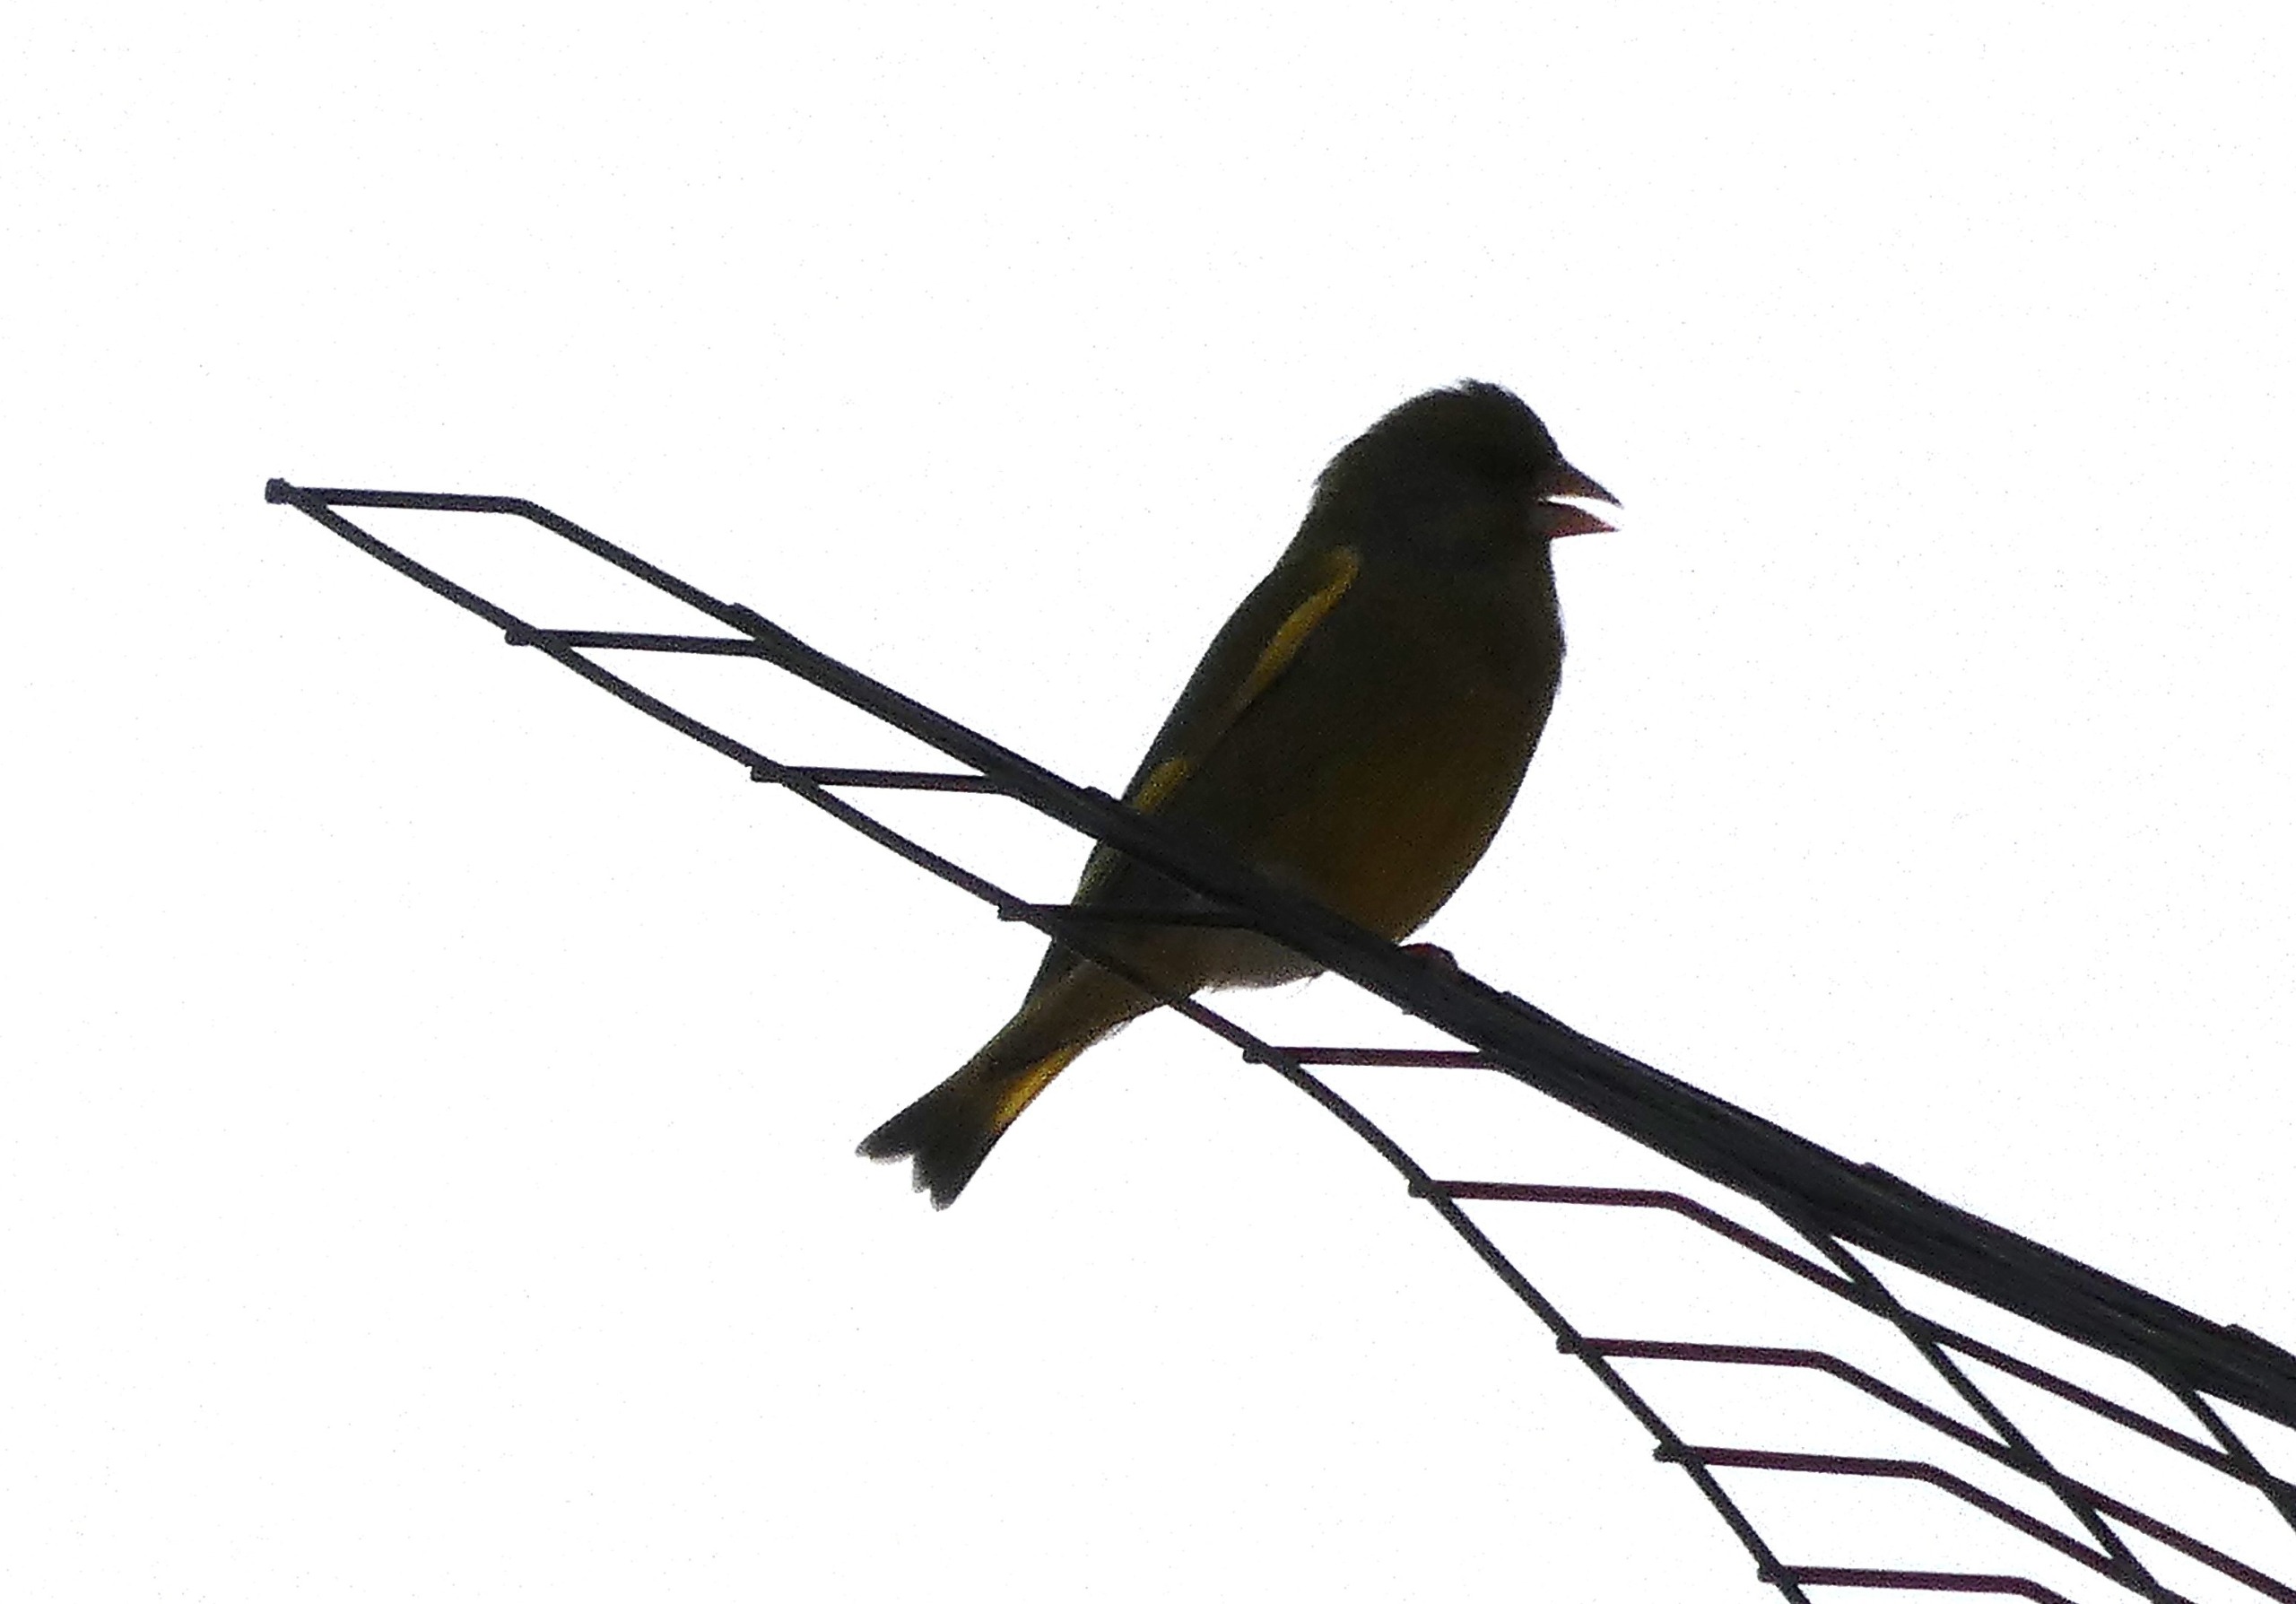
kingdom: Plantae
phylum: Tracheophyta
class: Liliopsida
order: Poales
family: Poaceae
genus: Chloris
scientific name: Chloris chloris
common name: Grønirisk
